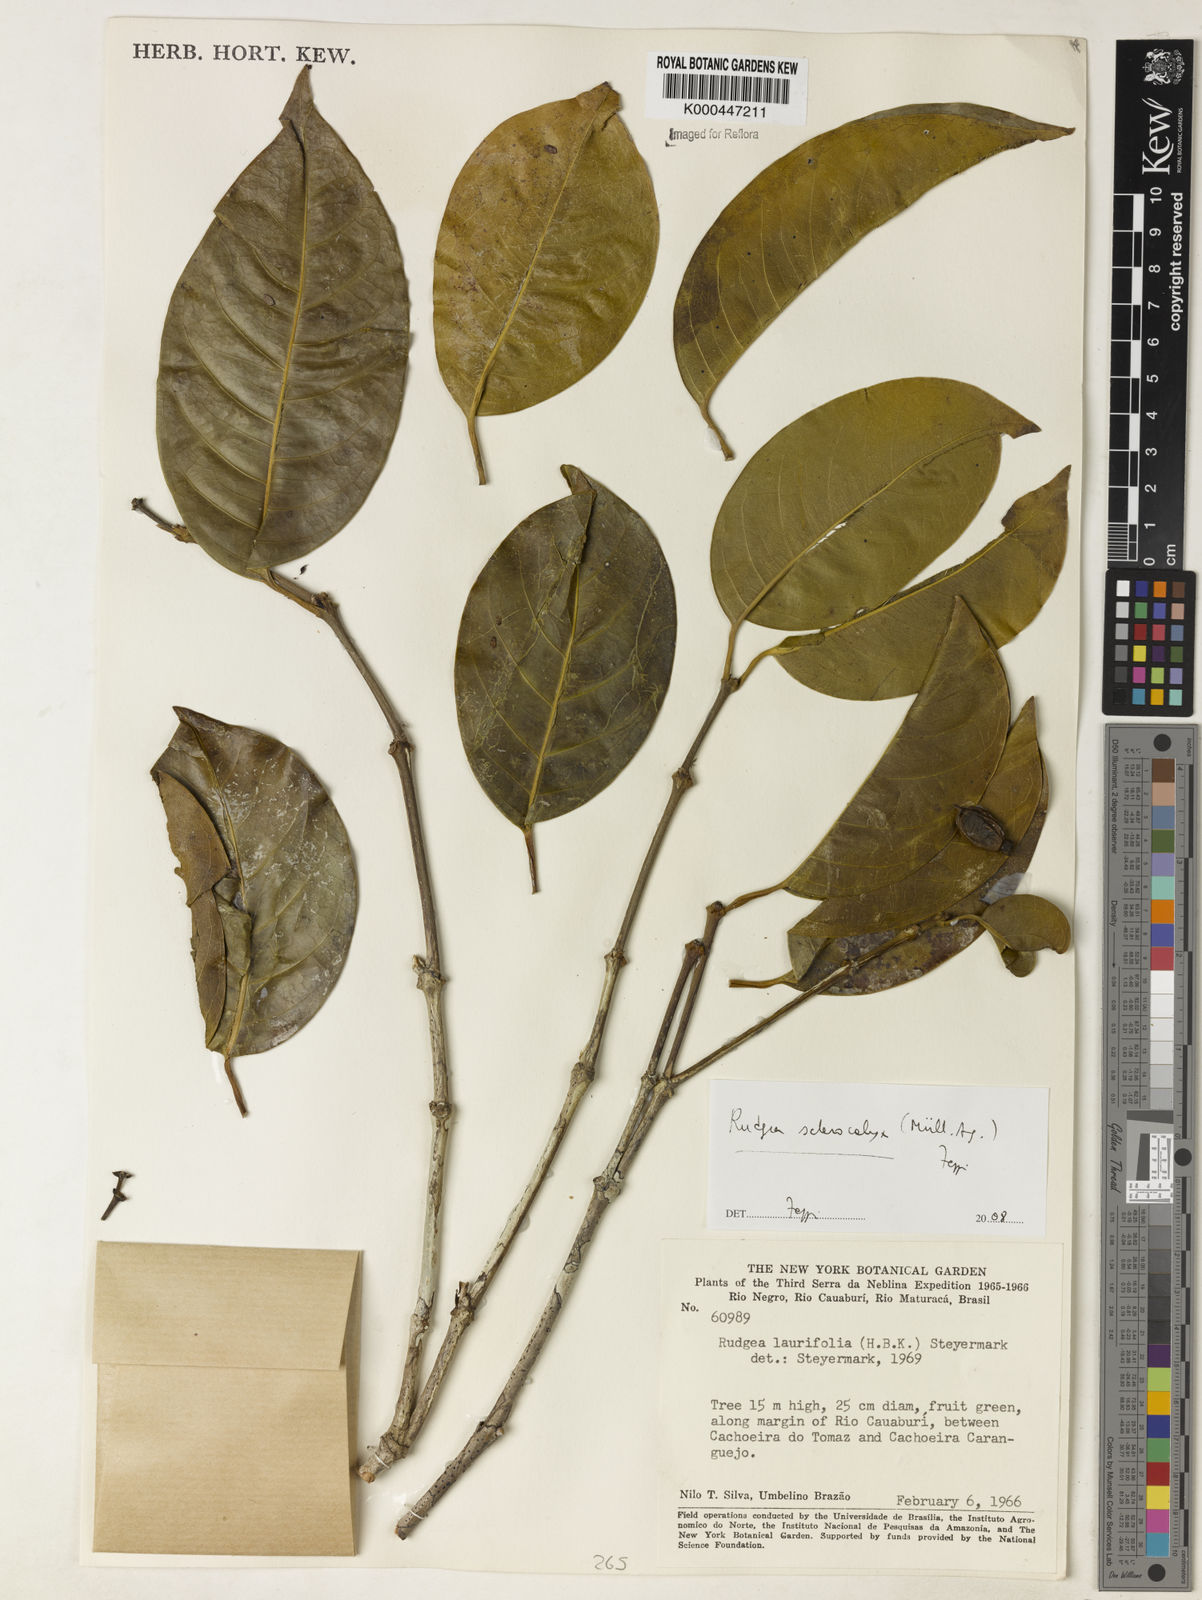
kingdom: Plantae
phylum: Tracheophyta
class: Magnoliopsida
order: Gentianales
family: Rubiaceae
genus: Rudgea
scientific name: Rudgea sclerocalyx
